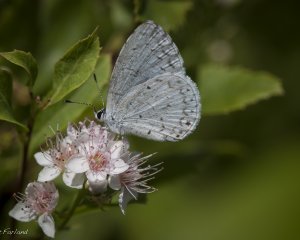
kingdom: Animalia
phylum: Arthropoda
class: Insecta
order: Lepidoptera
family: Lycaenidae
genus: Cyaniris
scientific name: Cyaniris neglecta
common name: Summer Azure
